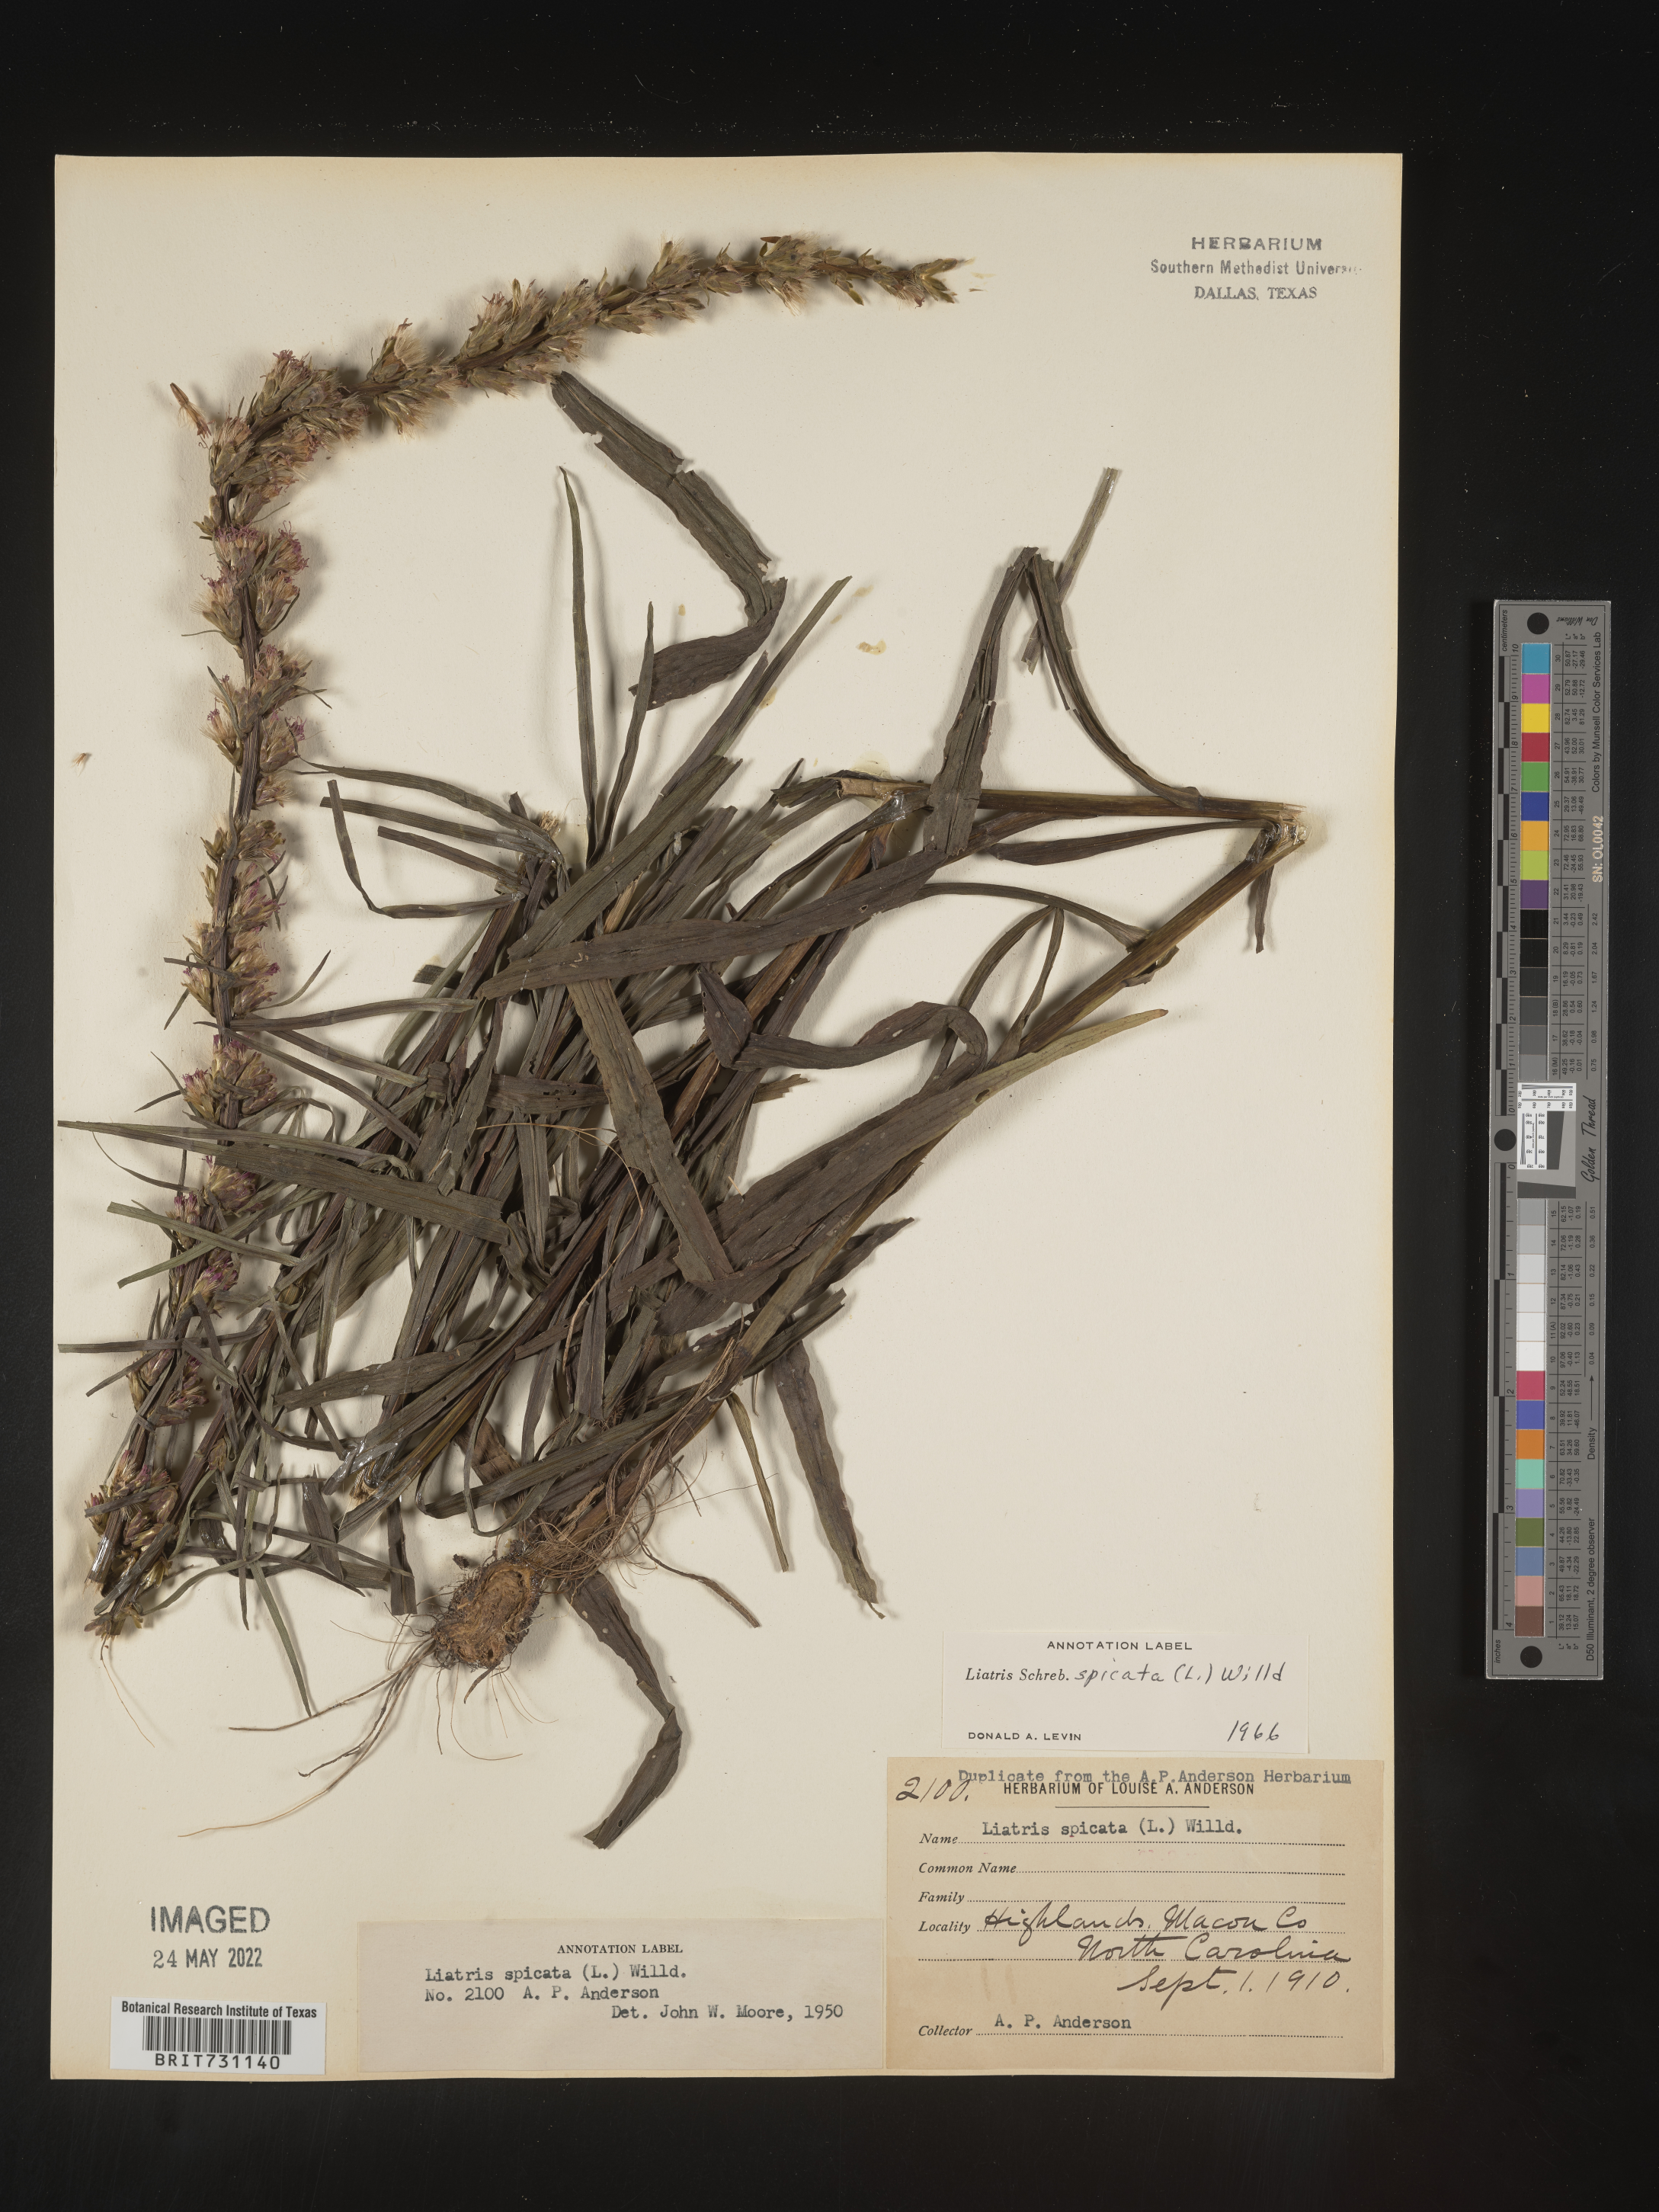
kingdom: Plantae
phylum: Tracheophyta
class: Magnoliopsida
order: Asterales
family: Asteraceae
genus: Liatris
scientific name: Liatris spicata
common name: Florist gayfeather
